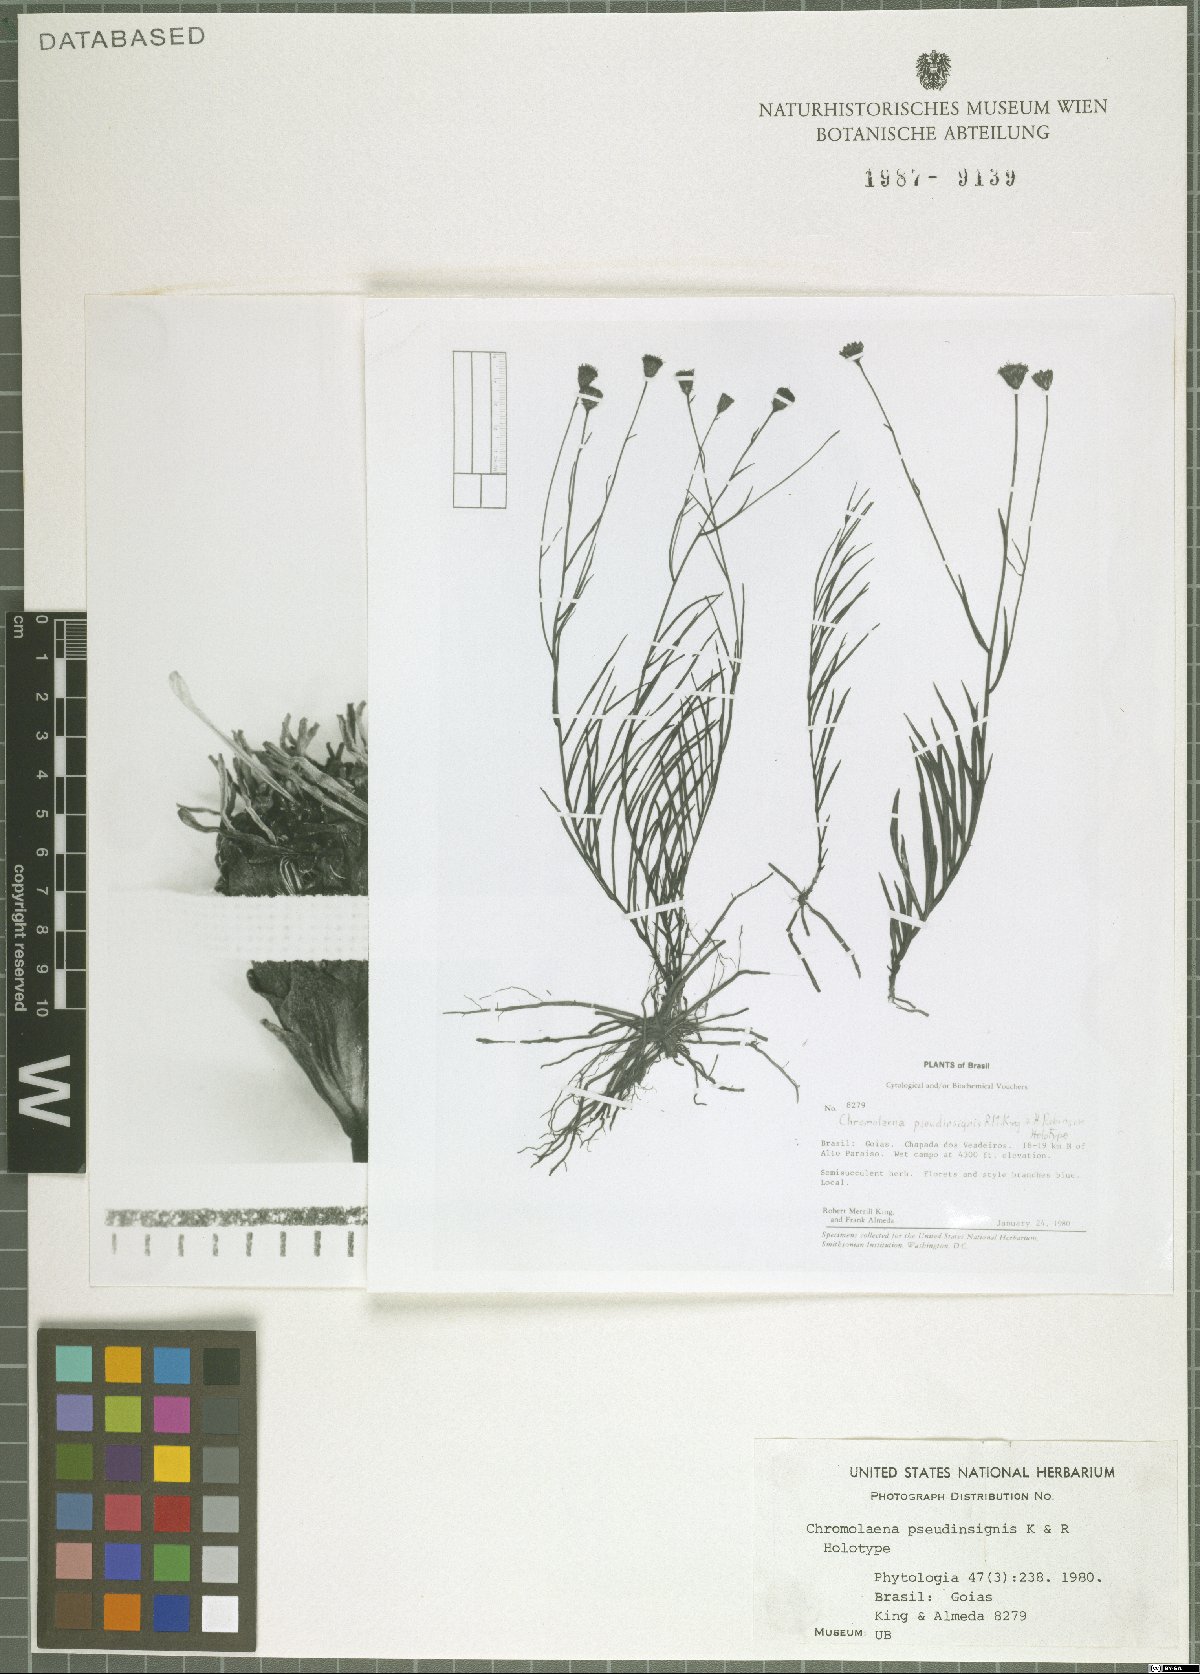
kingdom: Plantae
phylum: Tracheophyta
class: Magnoliopsida
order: Asterales
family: Asteraceae
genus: Chromolaena
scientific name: Chromolaena pseudinsignis
